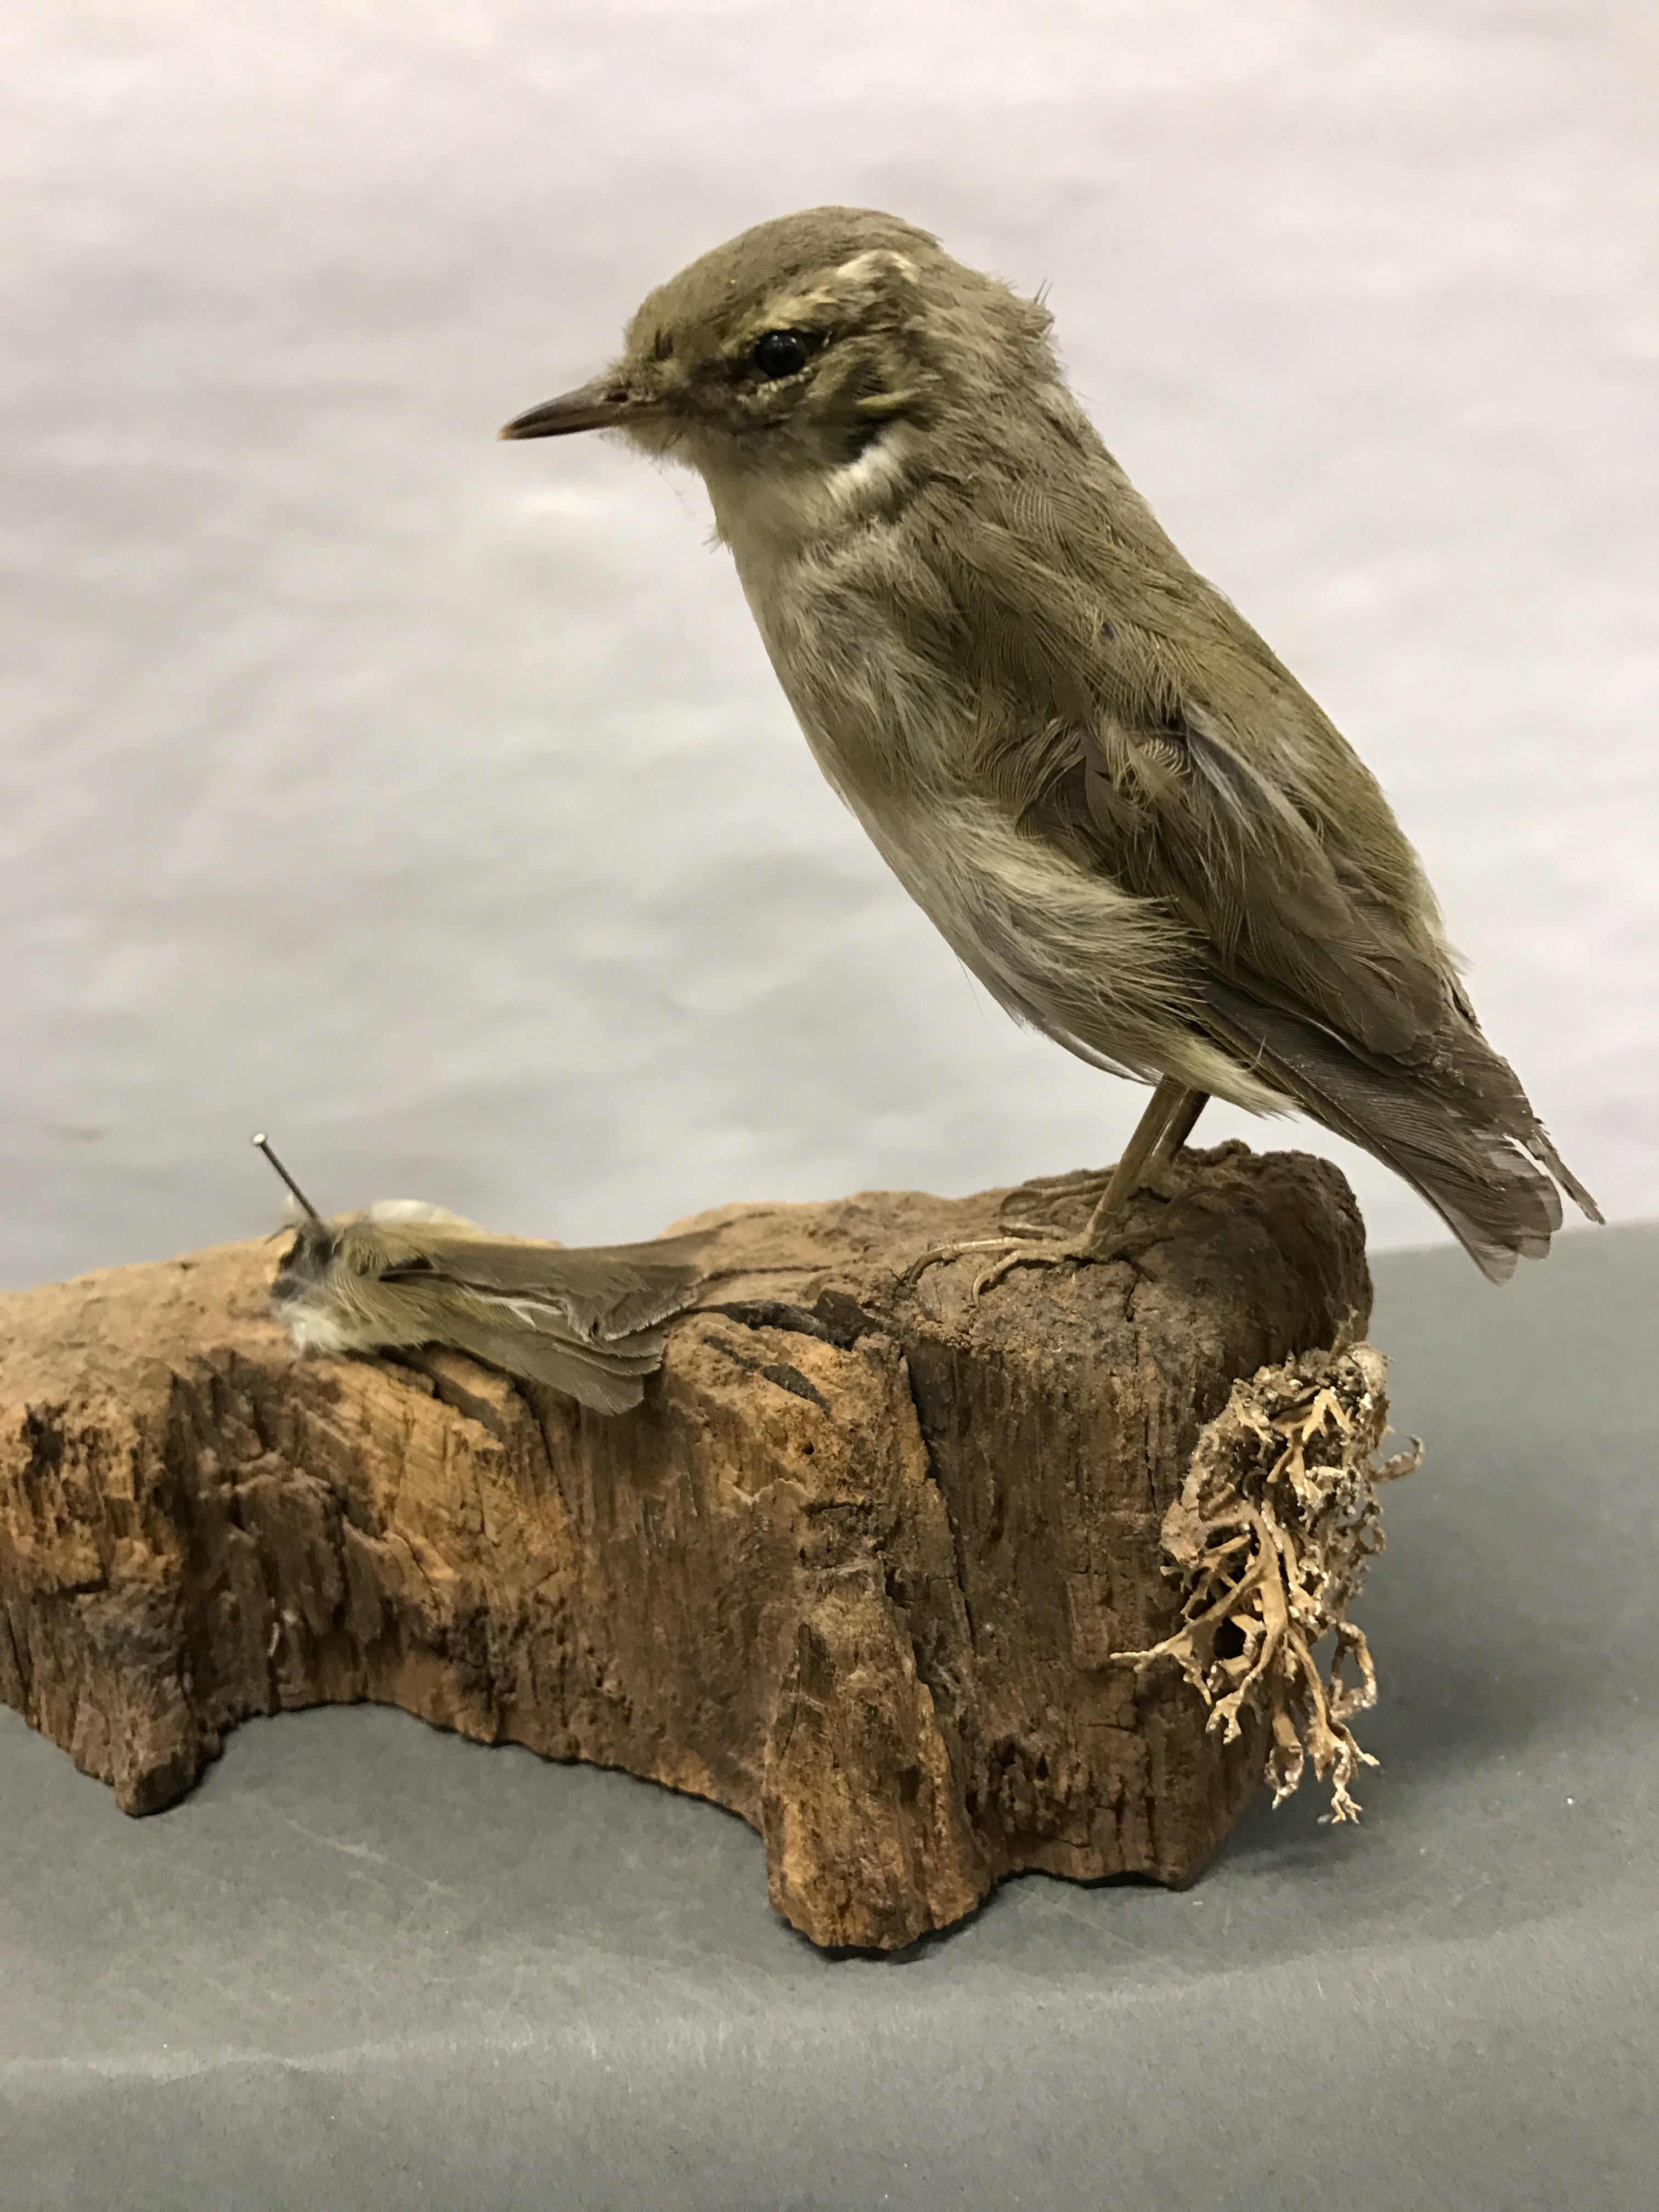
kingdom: Animalia
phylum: Chordata
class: Aves
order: Passeriformes
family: Phylloscopidae
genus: Phylloscopus
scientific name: Phylloscopus trochilus
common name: Willow warbler
